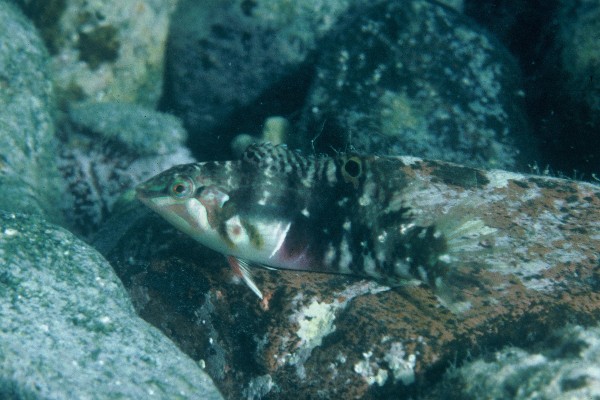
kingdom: Animalia
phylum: Chordata
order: Perciformes
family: Labridae
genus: Halichoeres
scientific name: Halichoeres nebulosus
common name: Clouded wrasse
